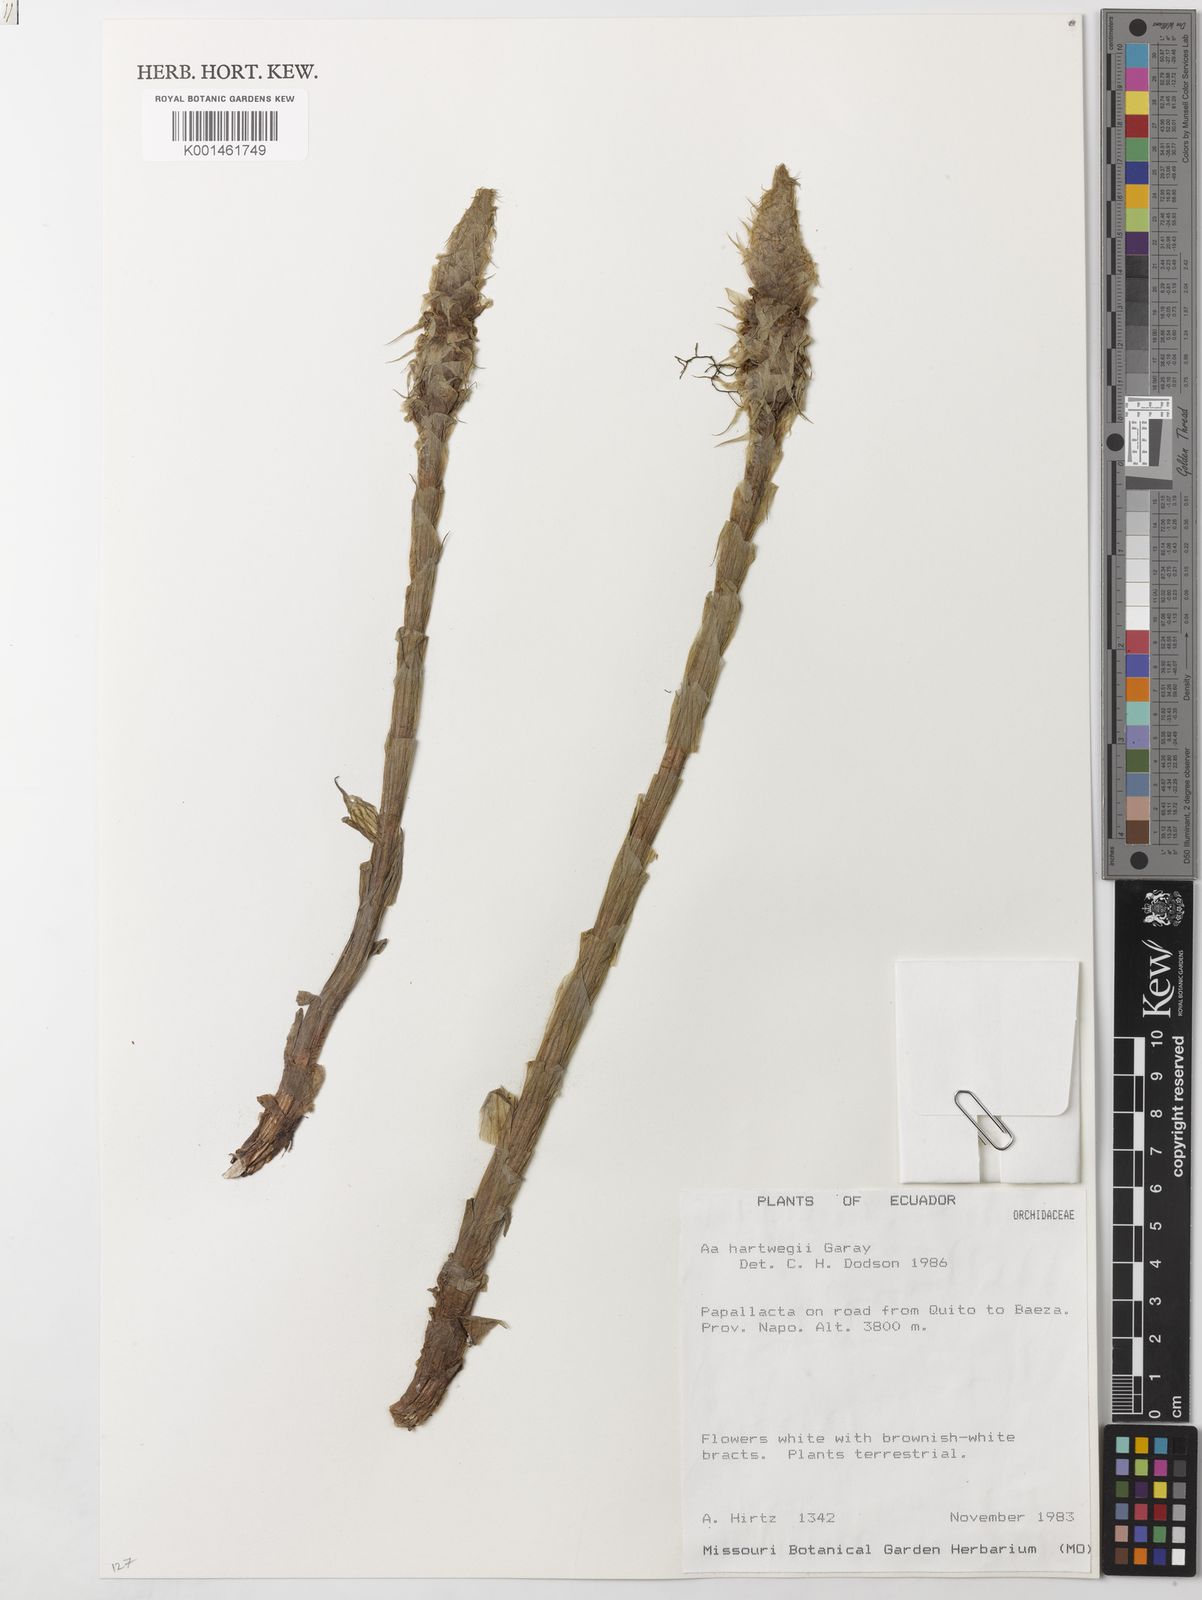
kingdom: Plantae
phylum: Tracheophyta
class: Liliopsida
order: Asparagales
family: Orchidaceae
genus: Aa
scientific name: Aa maderoi
